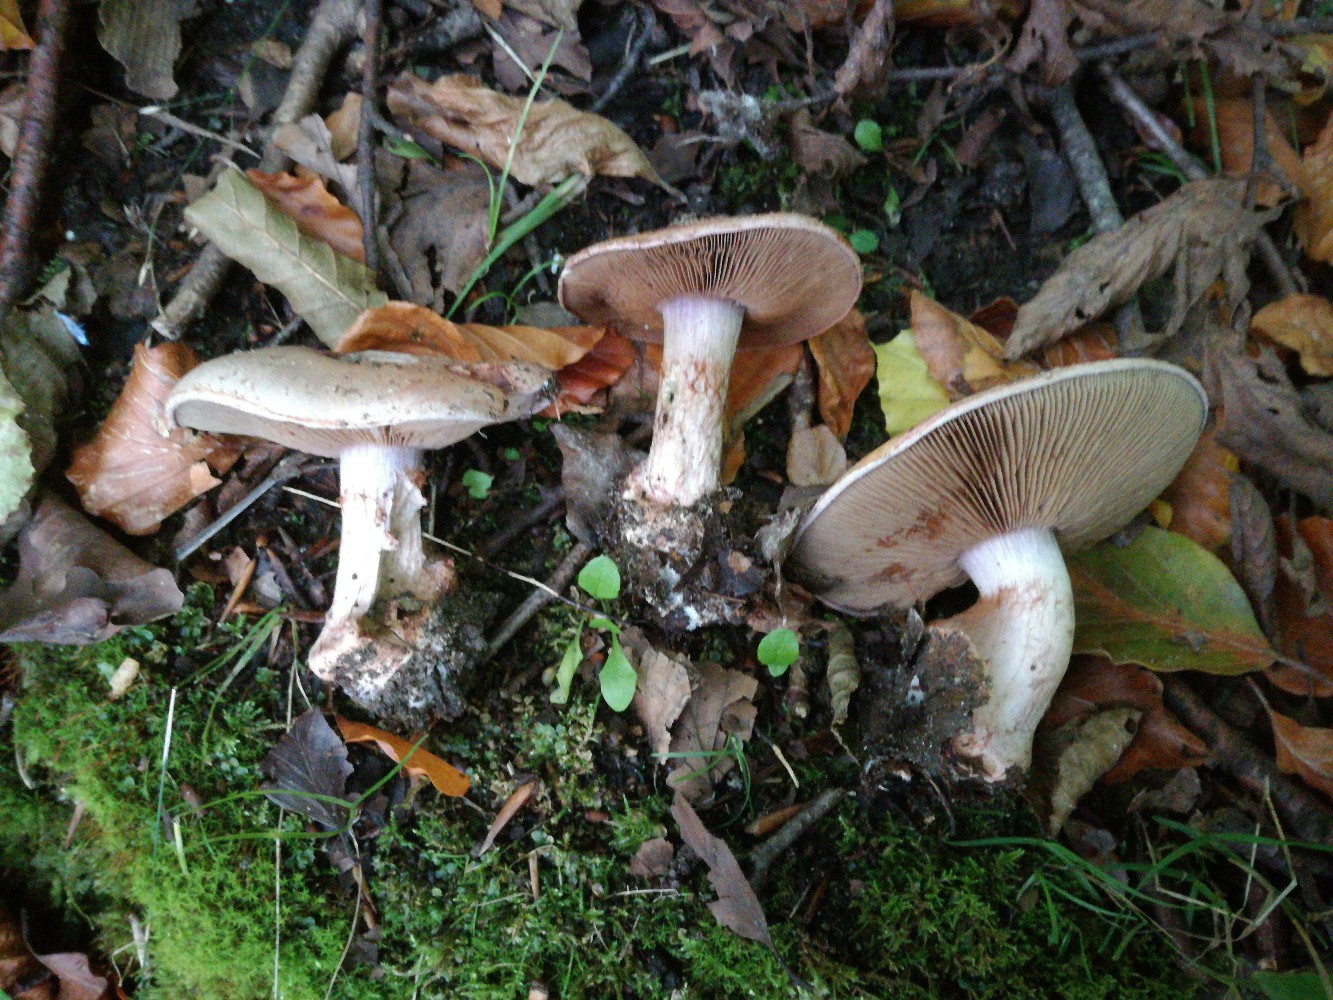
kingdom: Fungi
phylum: Basidiomycota
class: Agaricomycetes
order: Agaricales
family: Cortinariaceae
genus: Calonarius
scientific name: Calonarius rufo-olivaceus
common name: firefarvet slørhat
